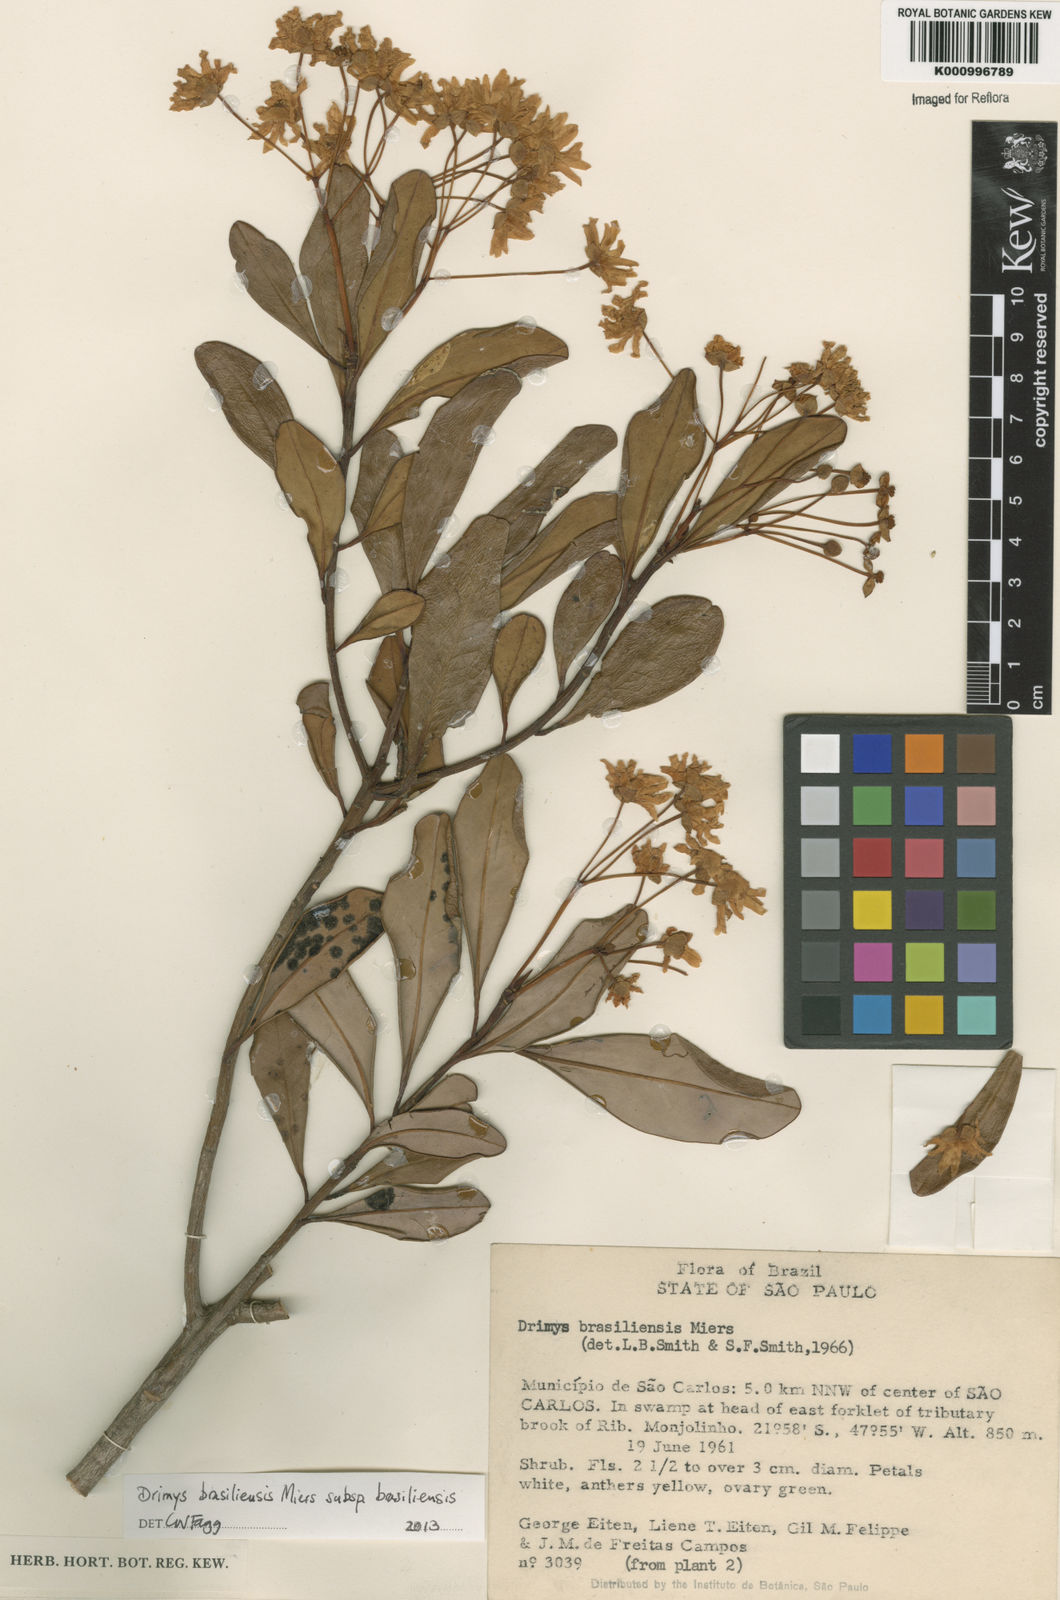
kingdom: Plantae
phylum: Tracheophyta
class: Magnoliopsida
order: Canellales
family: Winteraceae
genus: Drimys
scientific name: Drimys brasiliensis
